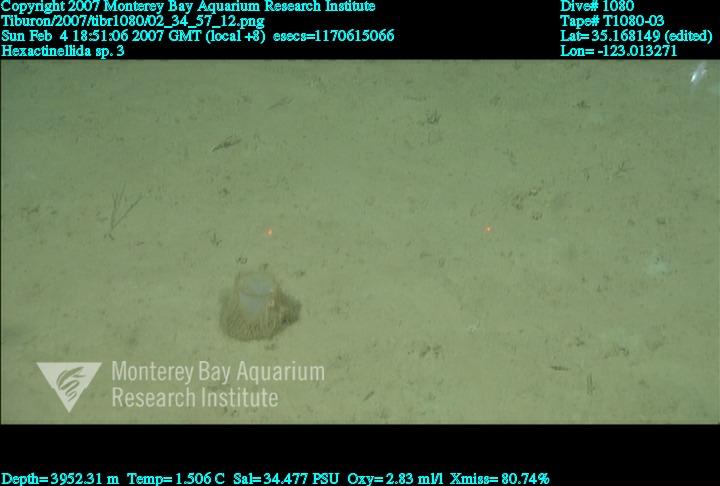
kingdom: Animalia
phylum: Porifera
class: Hexactinellida
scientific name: Hexactinellida
